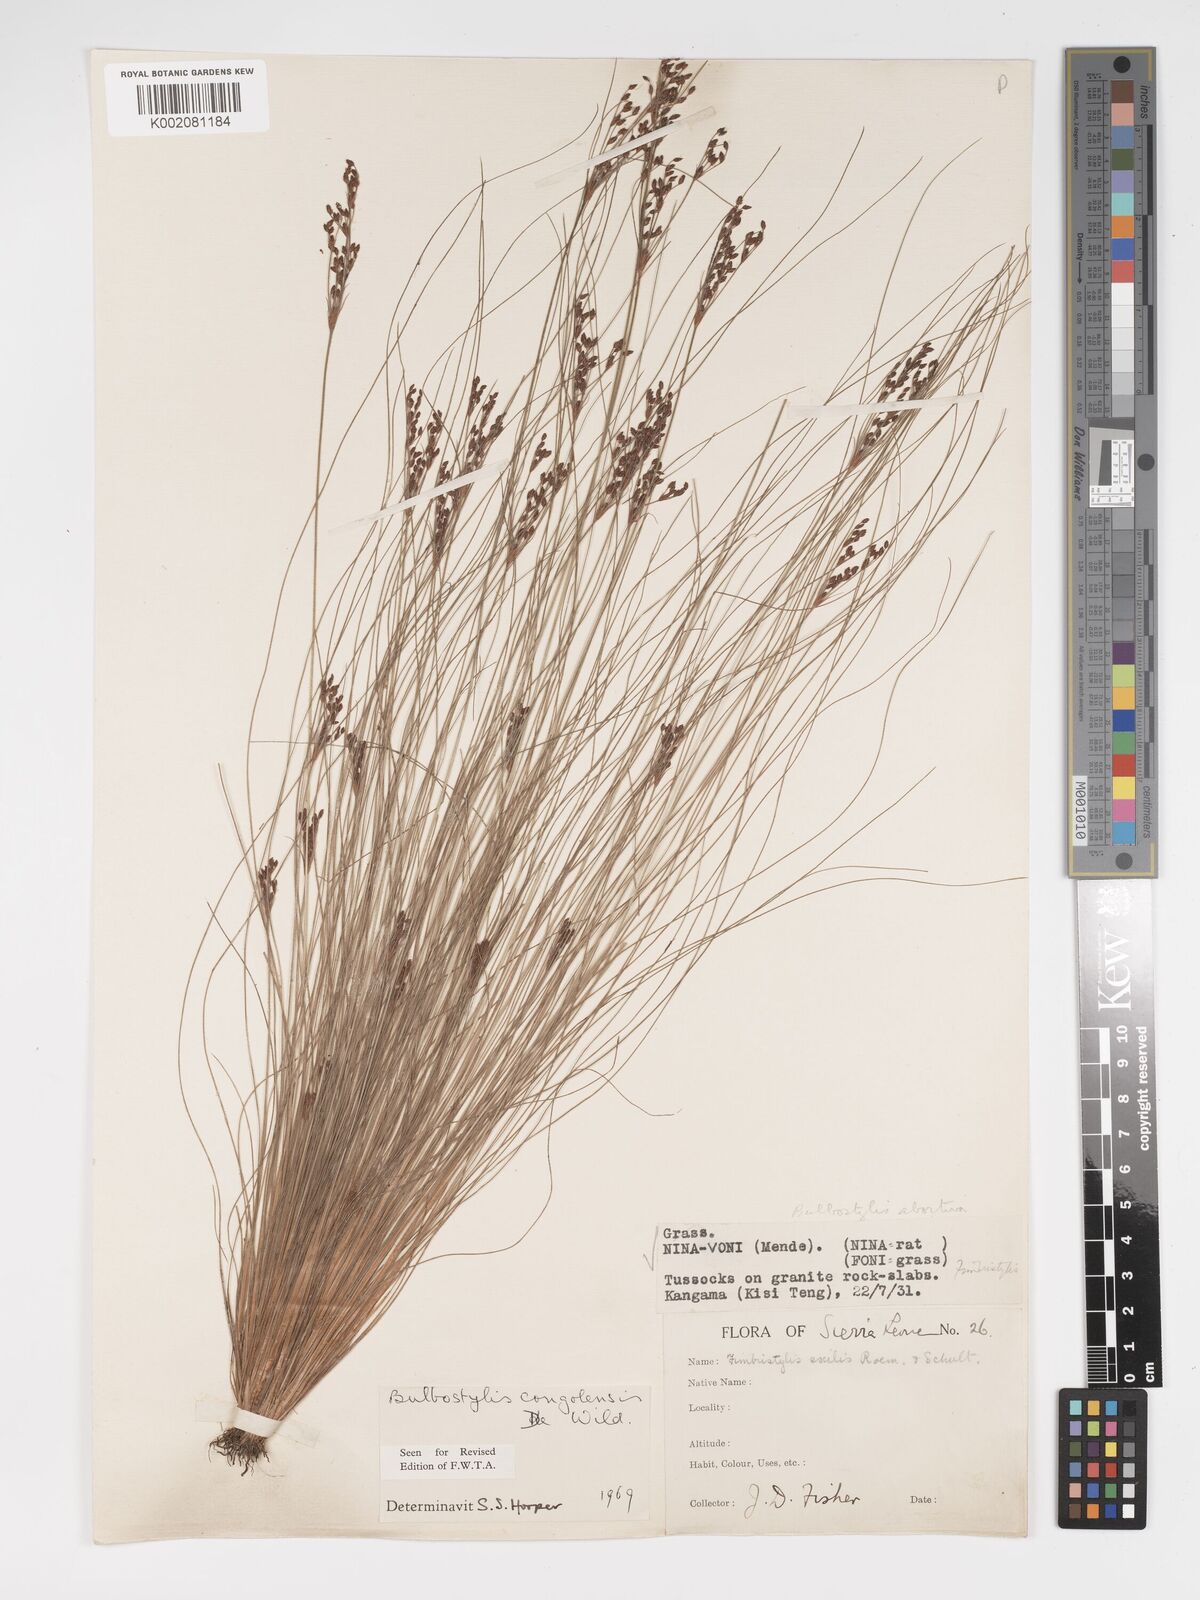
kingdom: Plantae
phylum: Tracheophyta
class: Liliopsida
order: Poales
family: Cyperaceae
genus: Bulbostylis
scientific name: Bulbostylis congolensis
